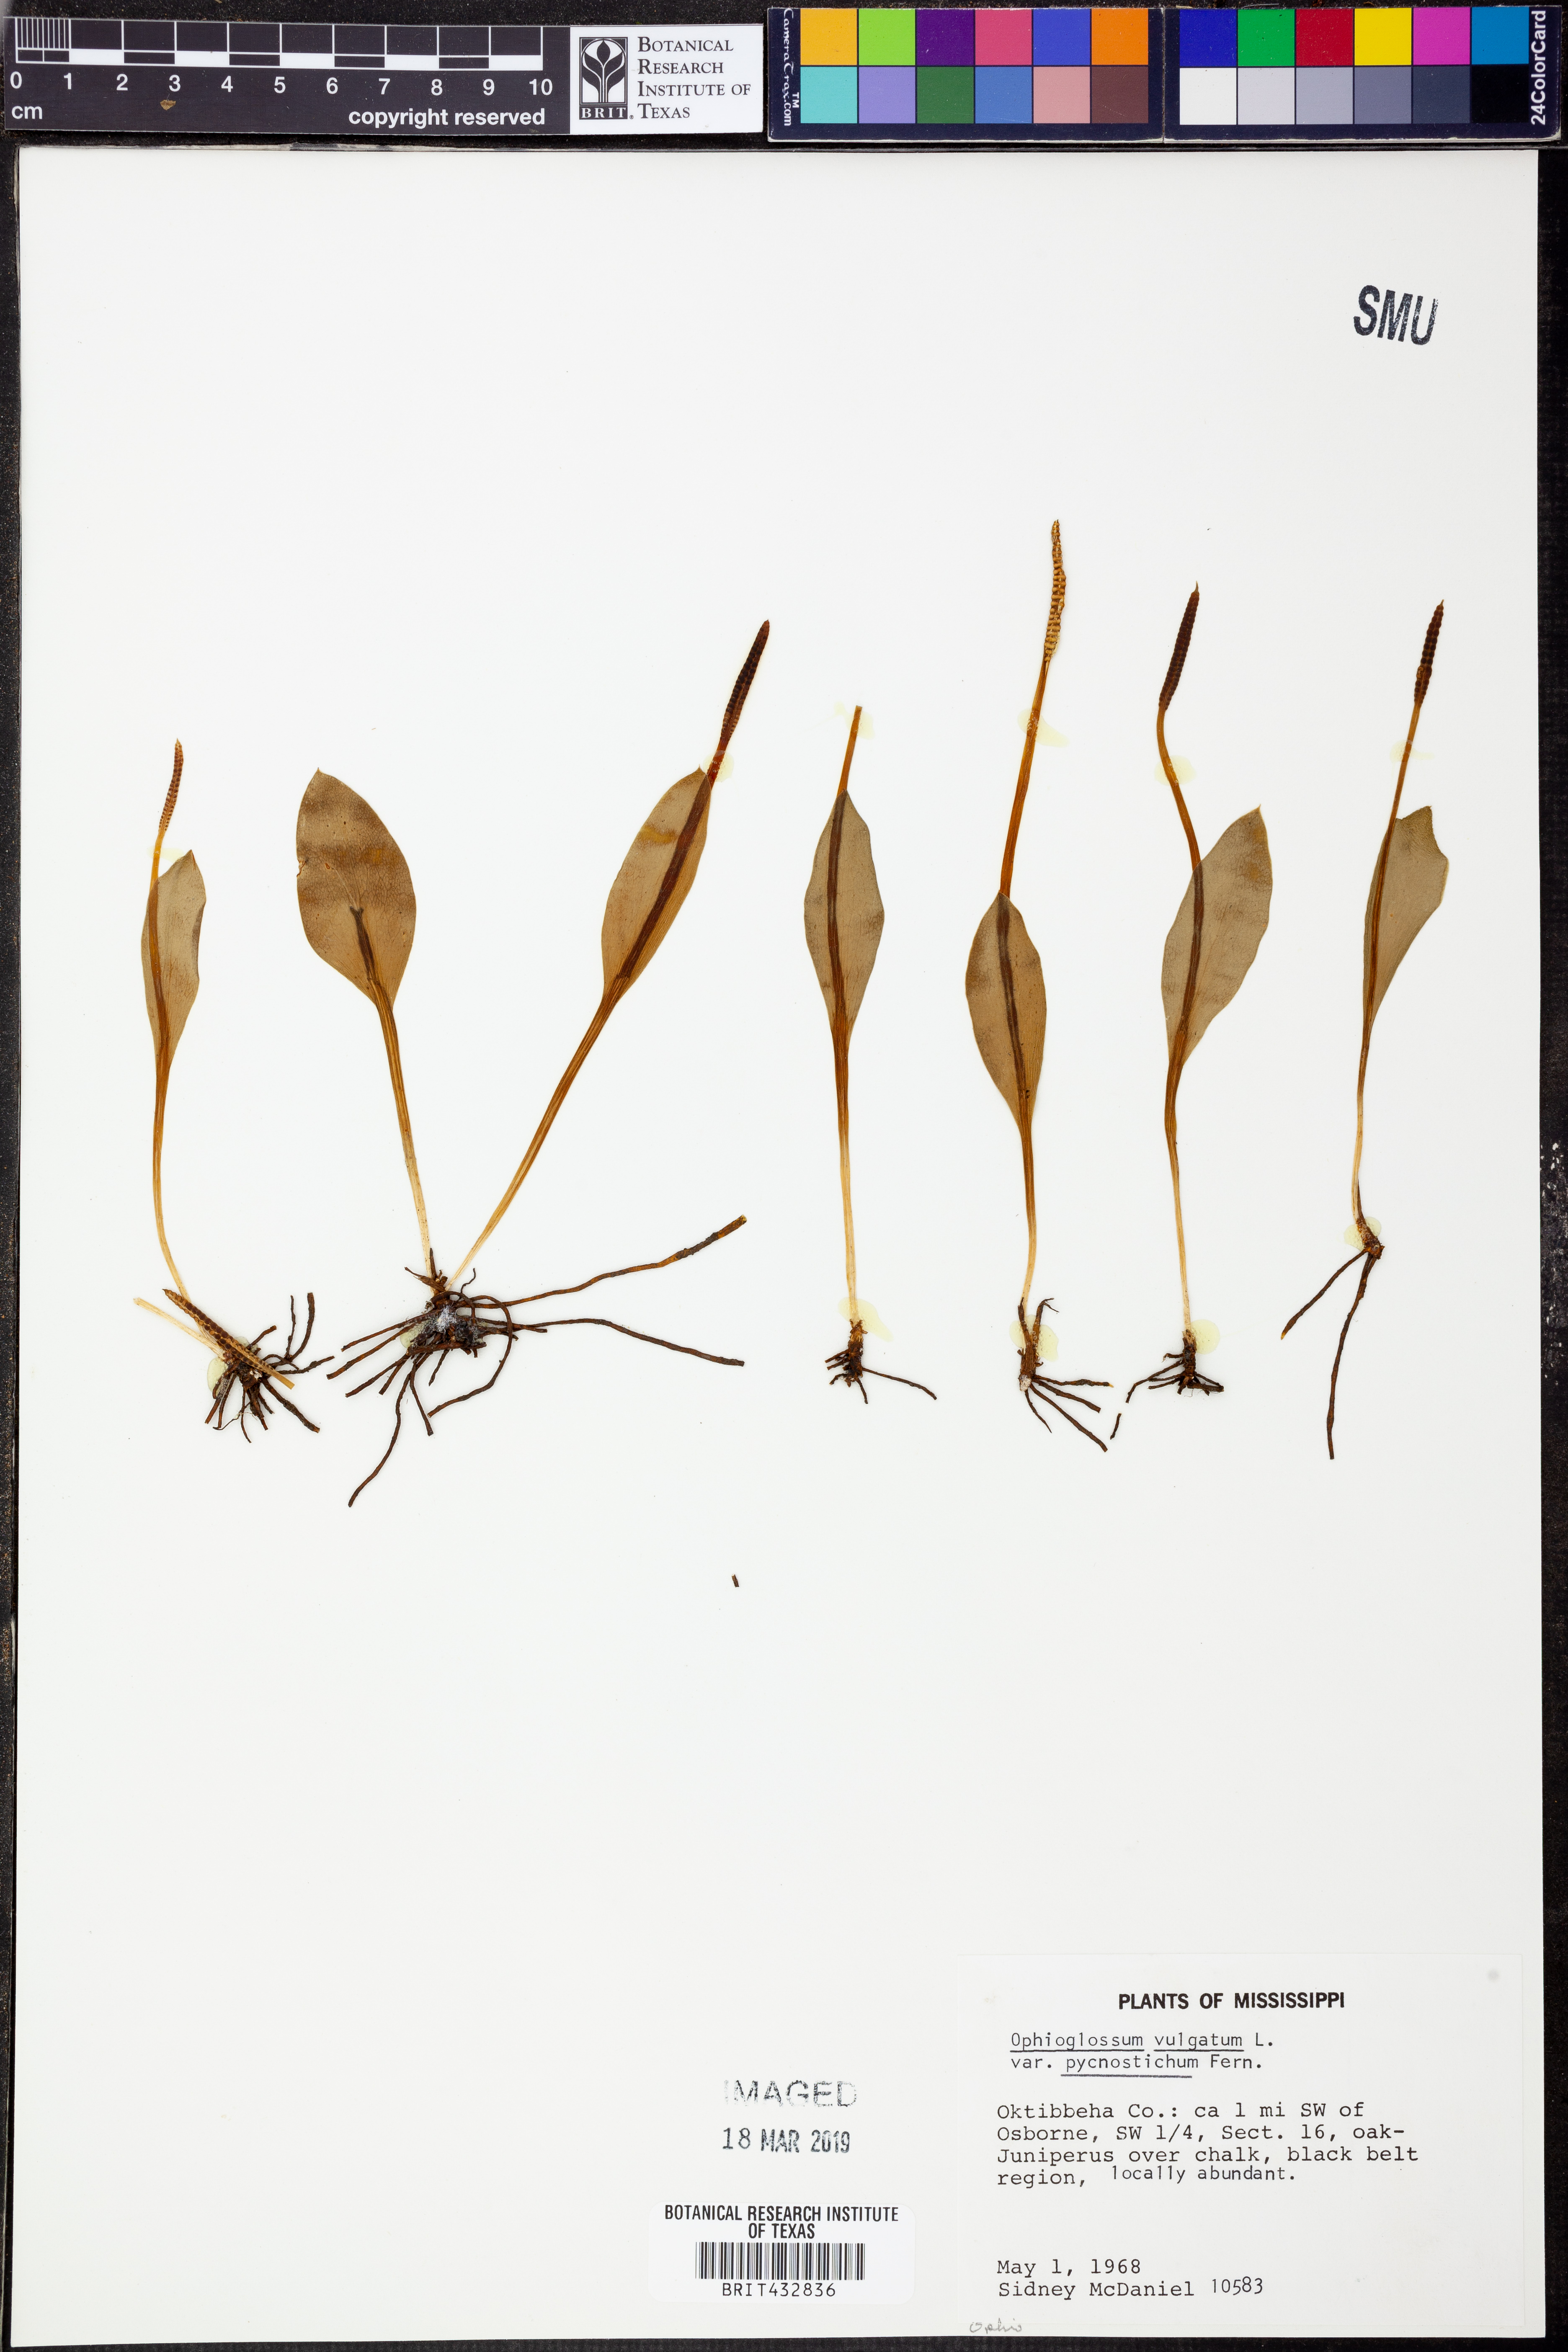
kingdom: Plantae
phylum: Tracheophyta
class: Polypodiopsida
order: Ophioglossales
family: Ophioglossaceae
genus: Ophioglossum
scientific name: Ophioglossum vulgatum
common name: Adder's-tongue
